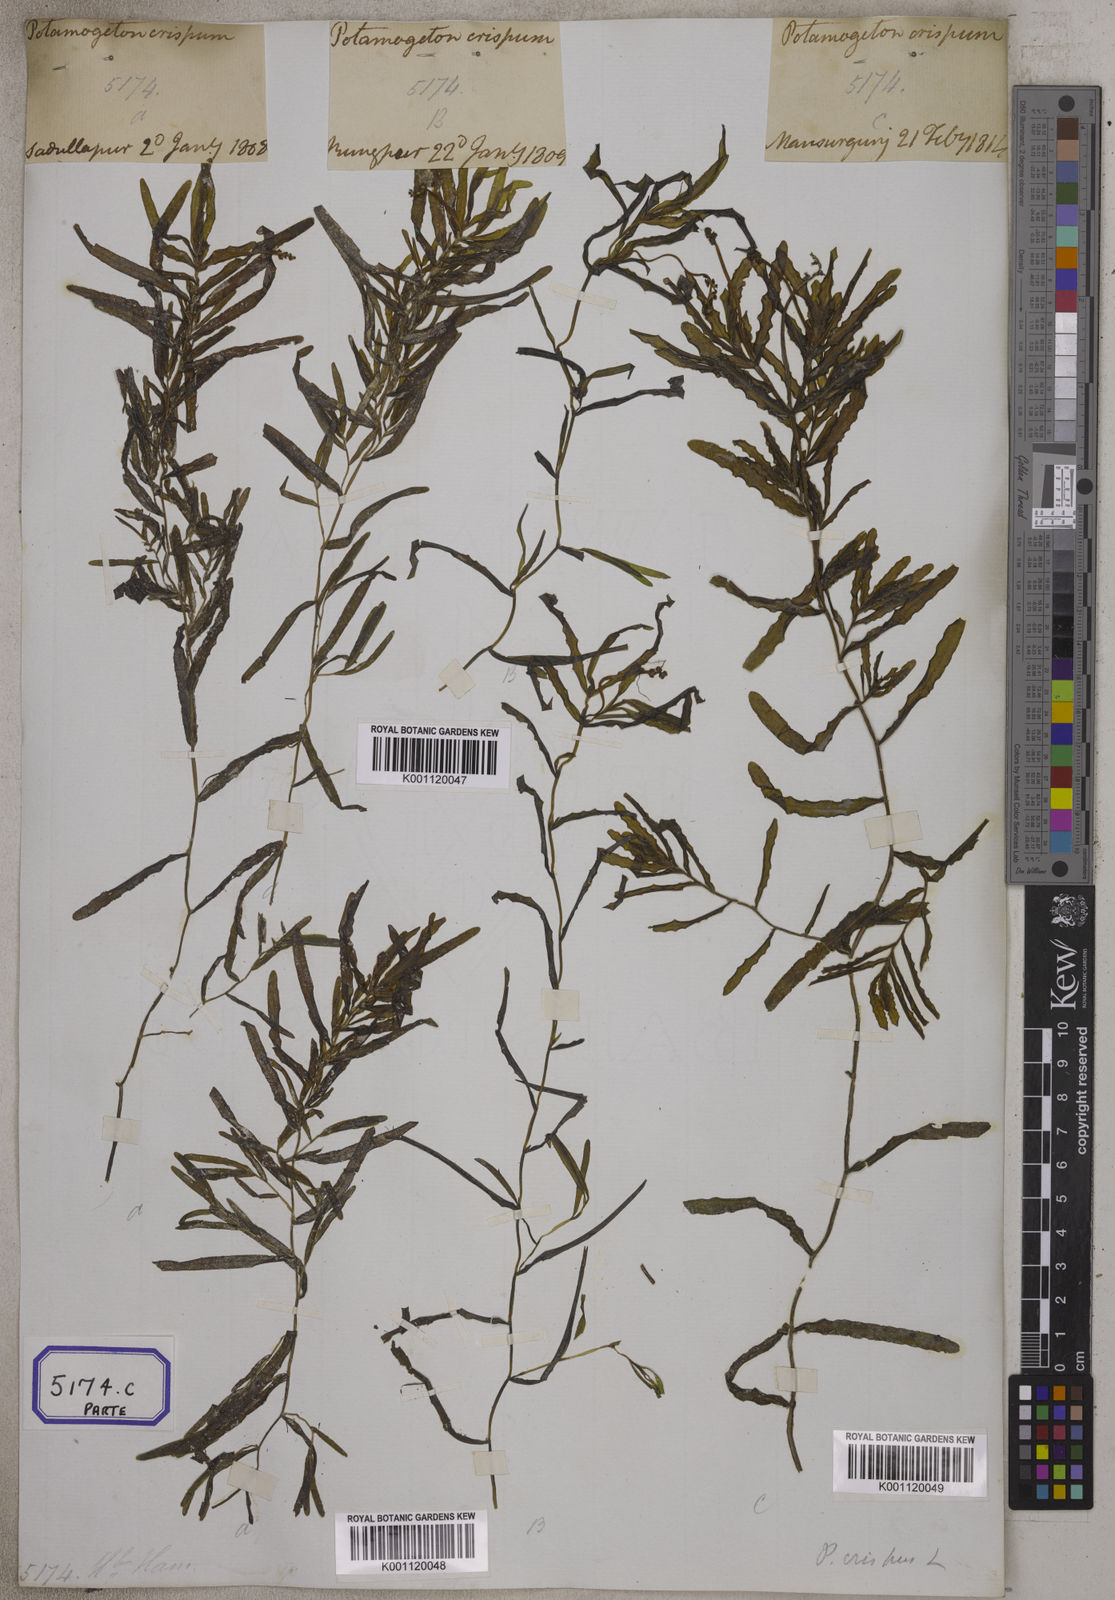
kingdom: Plantae
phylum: Tracheophyta
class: Liliopsida
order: Alismatales
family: Potamogetonaceae
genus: Potamogeton
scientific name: Potamogeton crispus
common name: Curled pondweed
